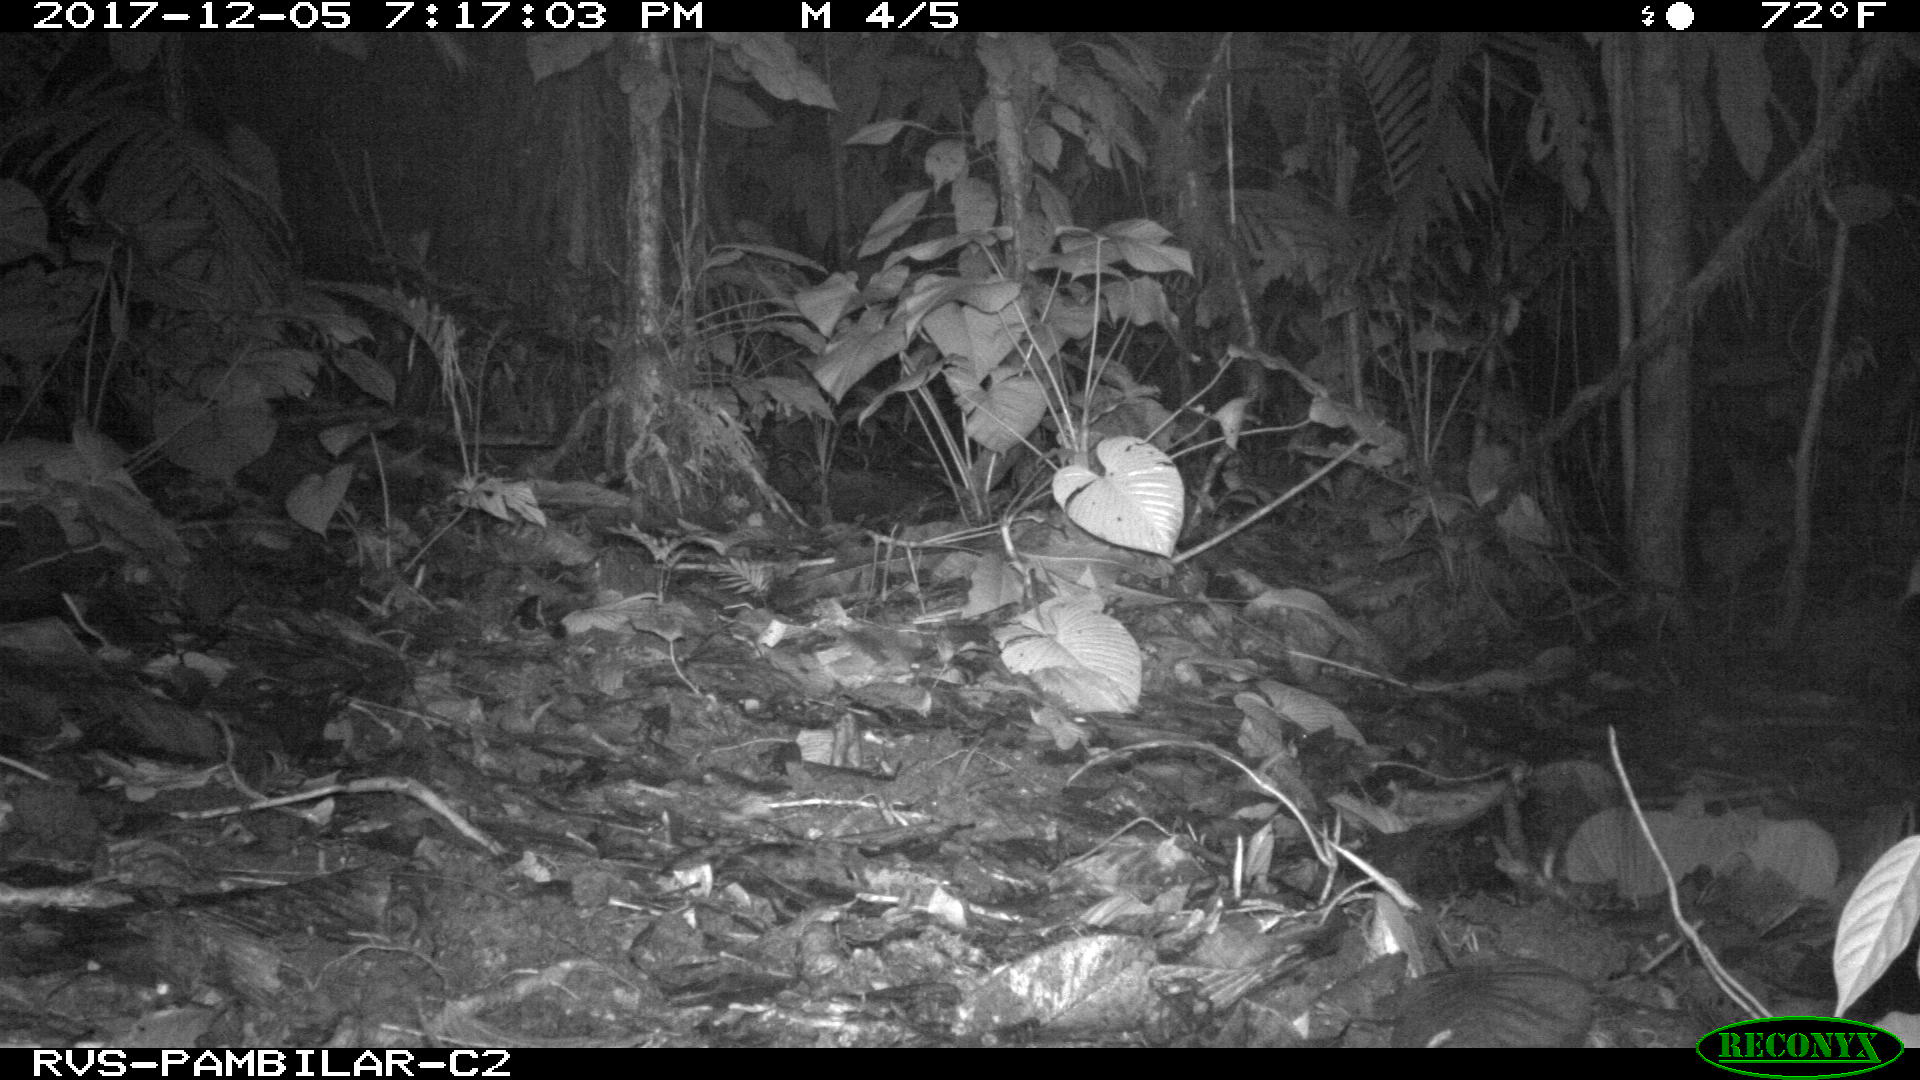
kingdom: Animalia
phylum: Chordata
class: Mammalia
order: Cingulata
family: Dasypodidae
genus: Dasypus
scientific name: Dasypus novemcinctus
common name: Nine-banded armadillo
